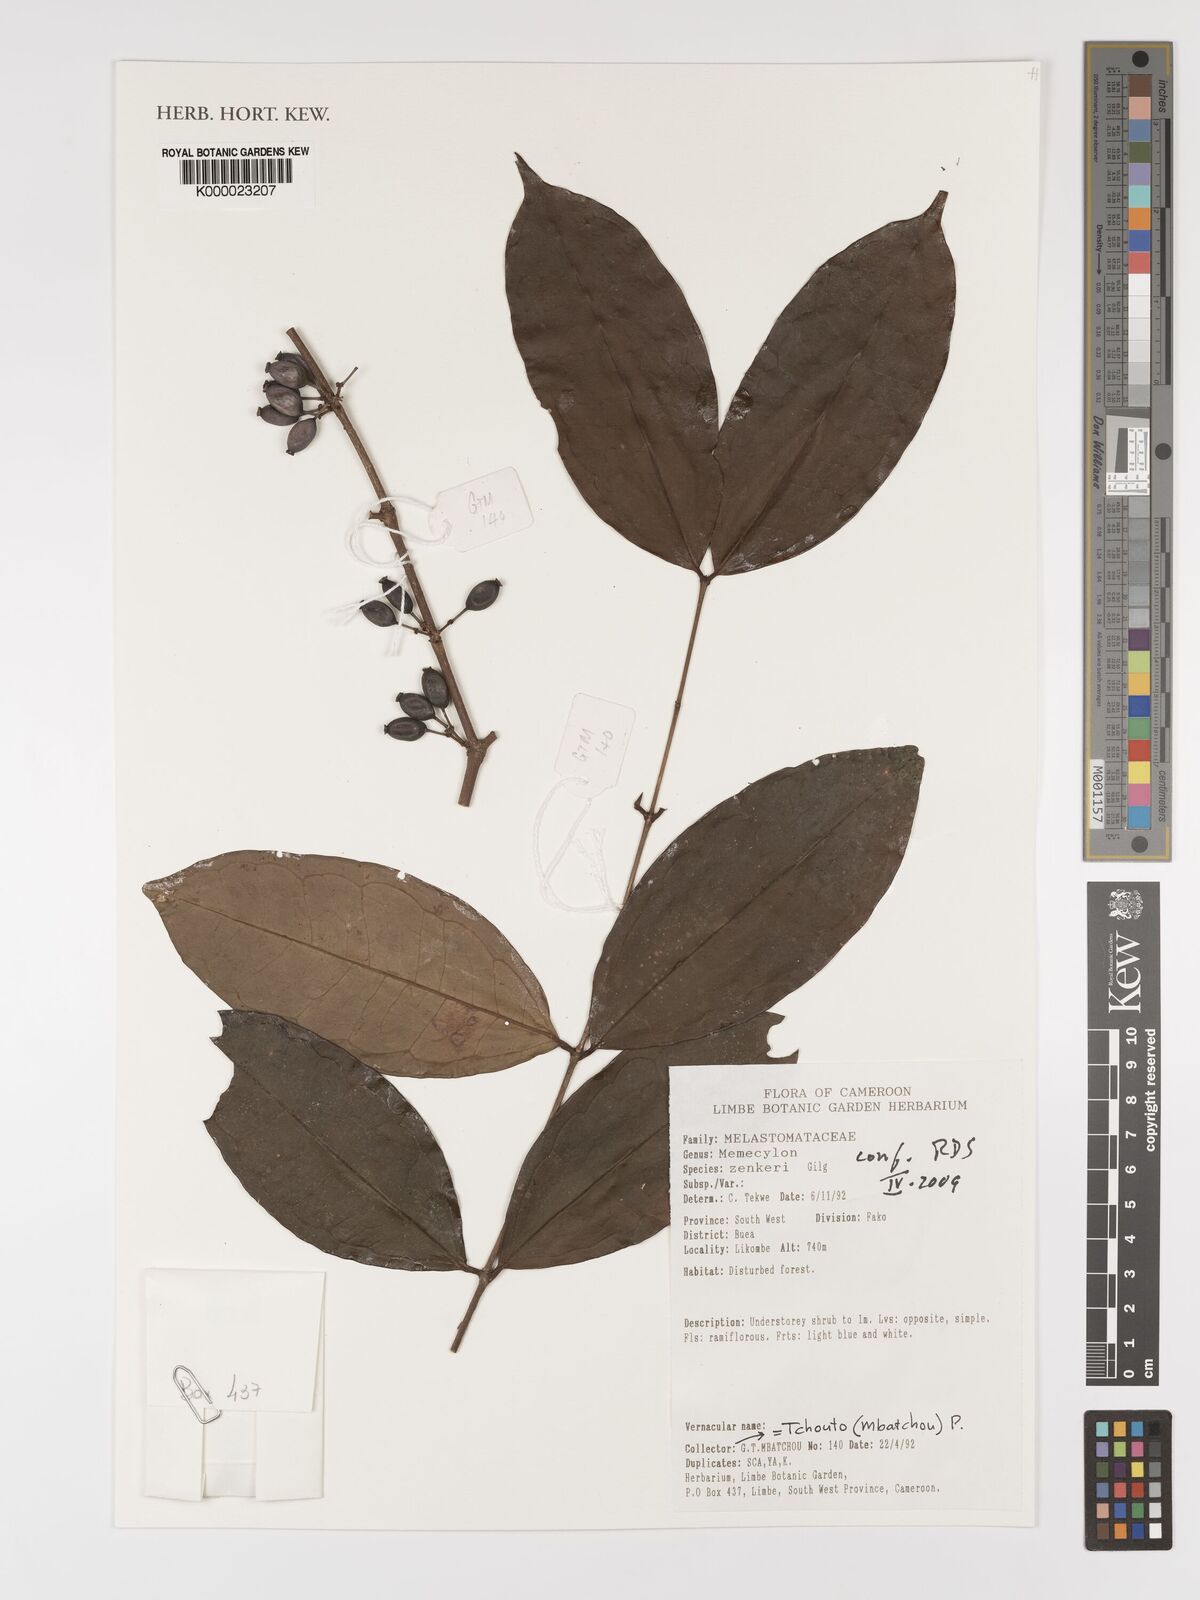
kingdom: Plantae
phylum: Tracheophyta
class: Magnoliopsida
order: Myrtales
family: Melastomataceae
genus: Memecylon
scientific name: Memecylon zenkeri
